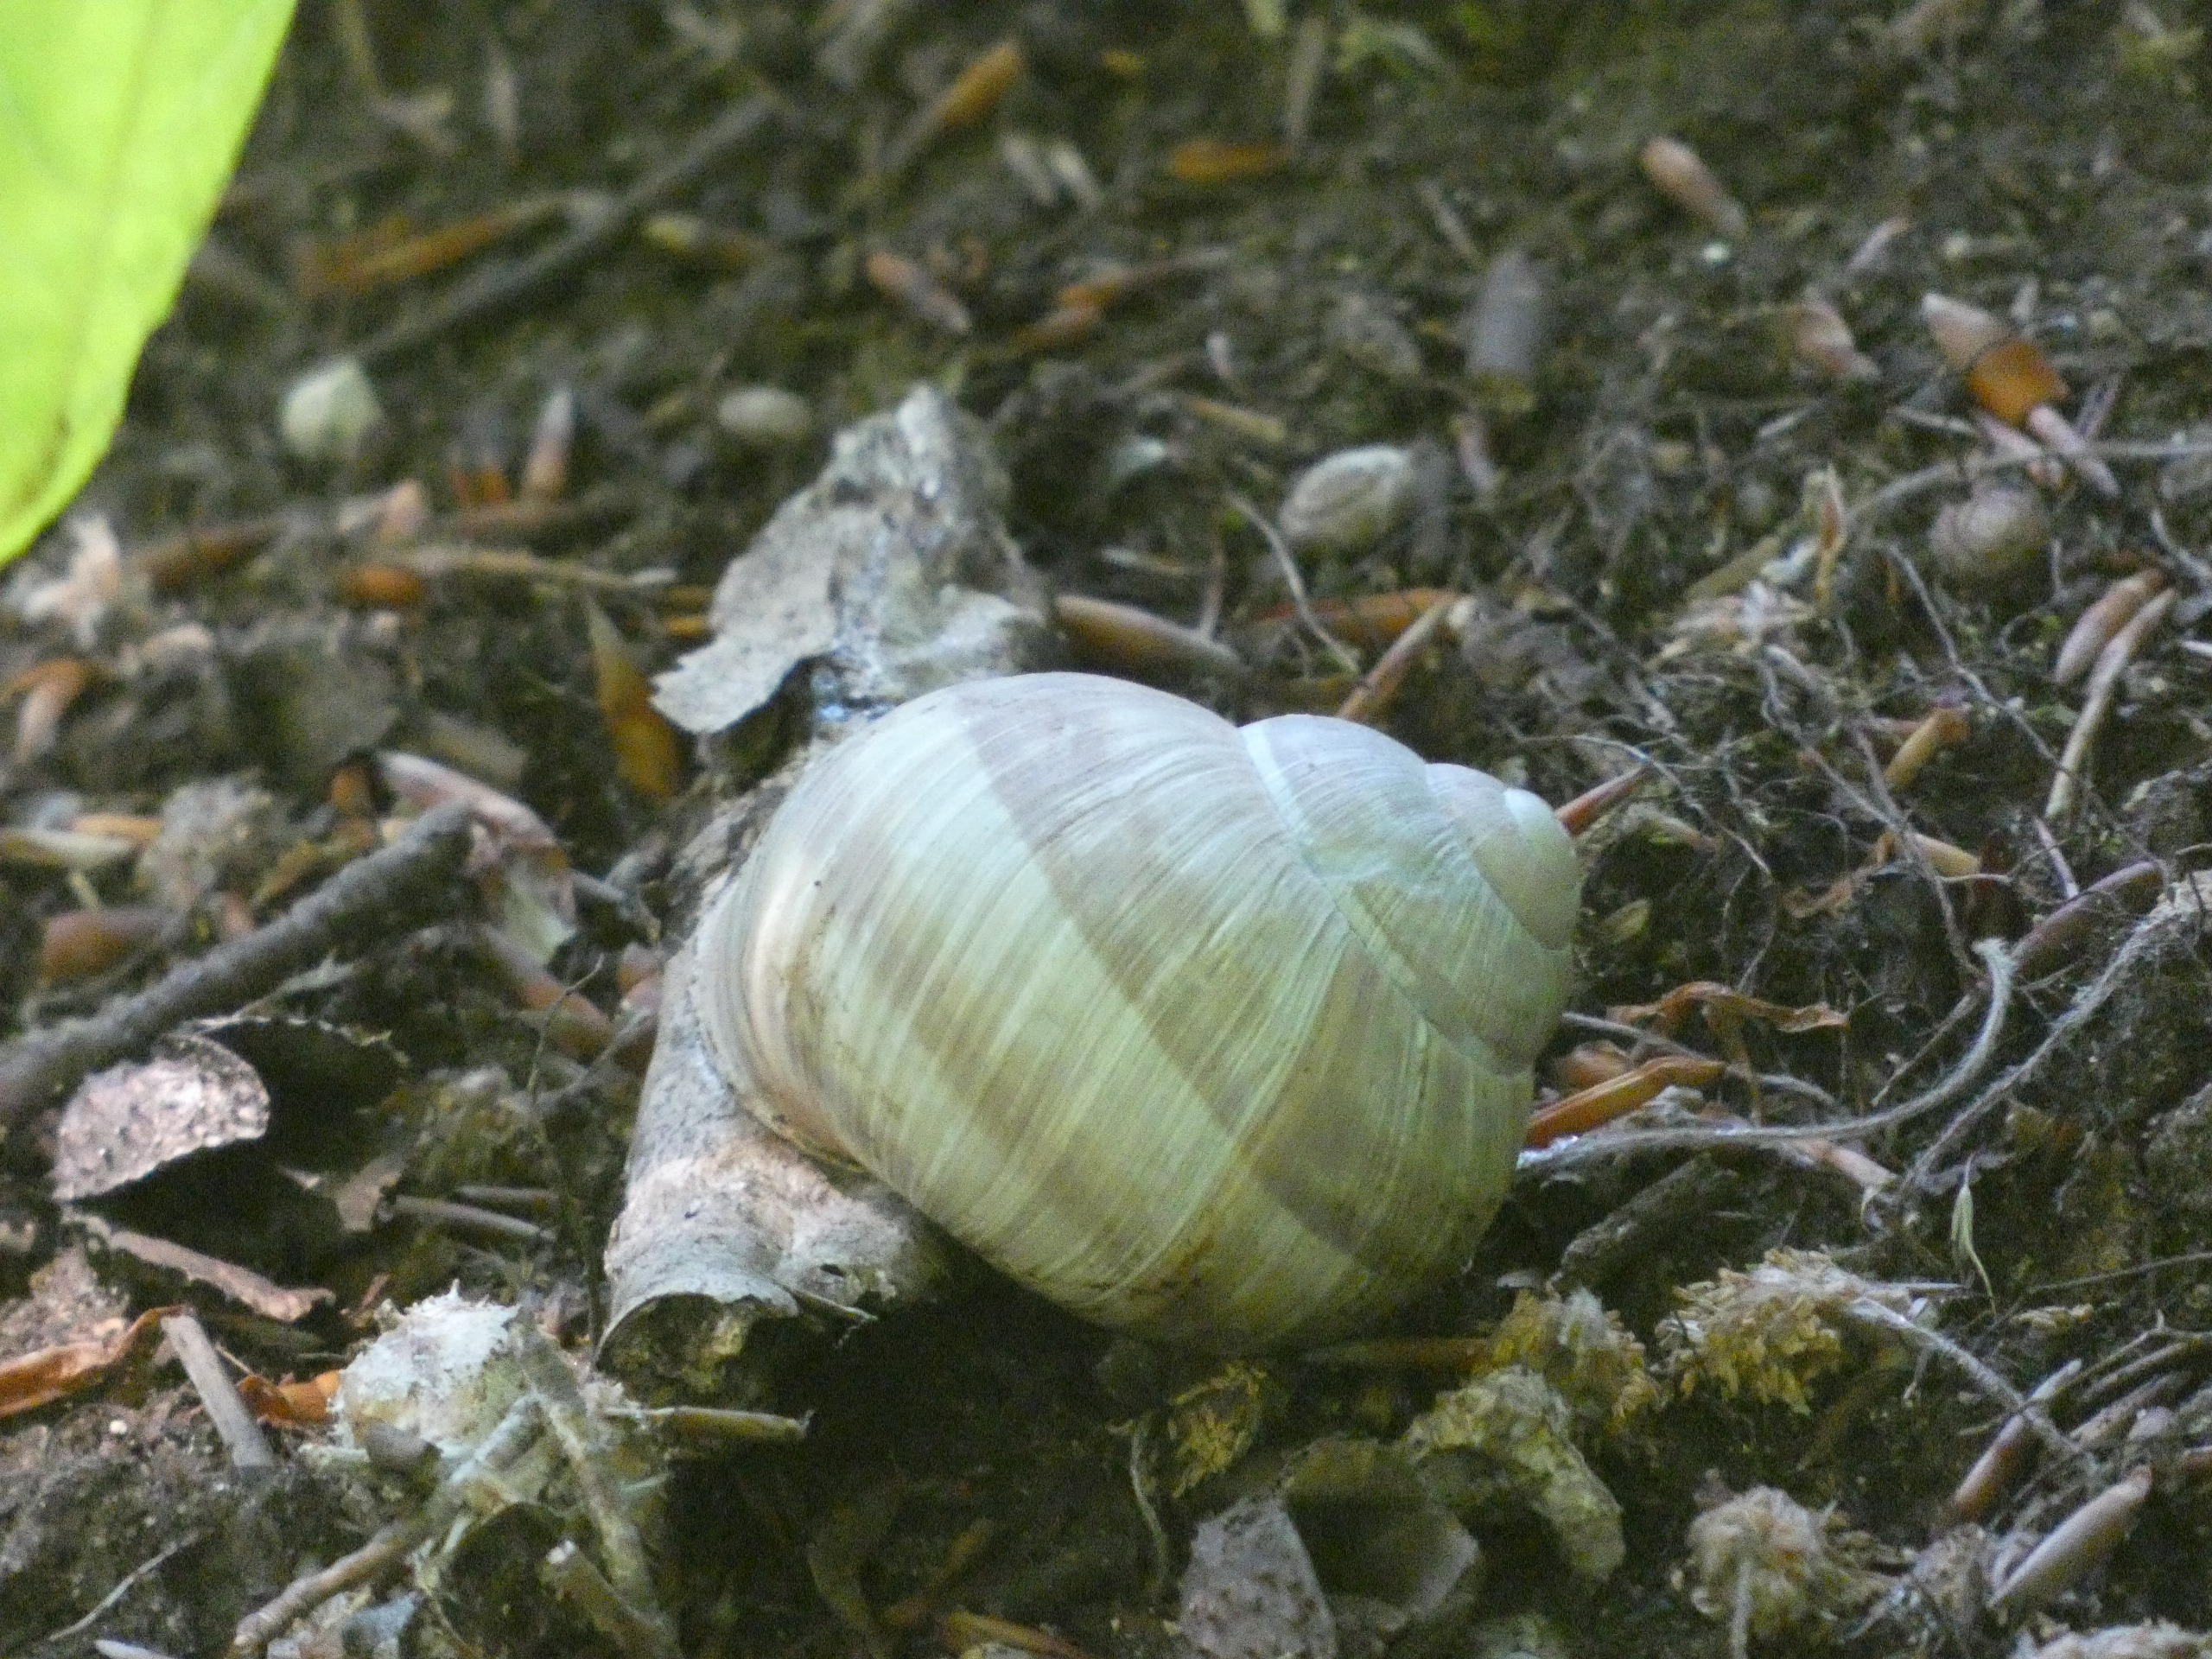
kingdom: Animalia
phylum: Mollusca
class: Gastropoda
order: Stylommatophora
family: Helicidae
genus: Helix
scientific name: Helix pomatia
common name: Vinbjergsnegl
